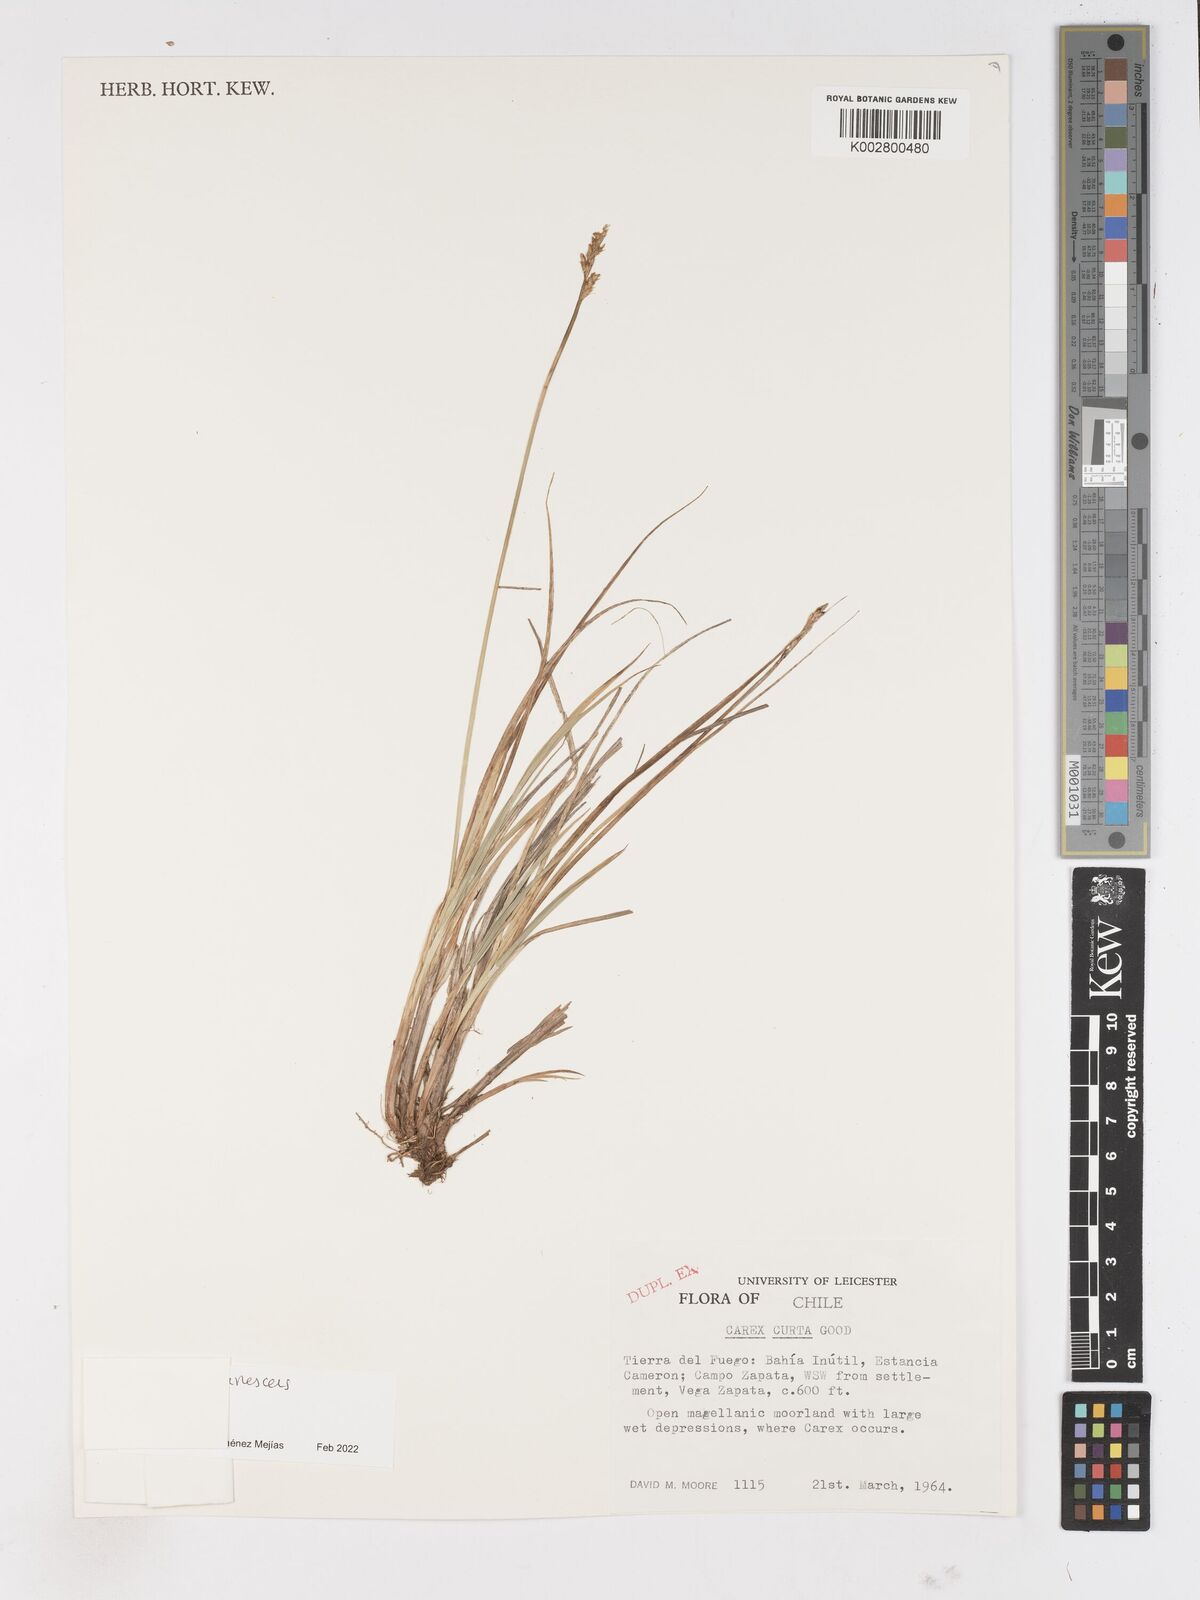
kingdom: Plantae
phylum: Tracheophyta
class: Liliopsida
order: Poales
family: Cyperaceae
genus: Carex
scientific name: Carex curta
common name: White sedge
